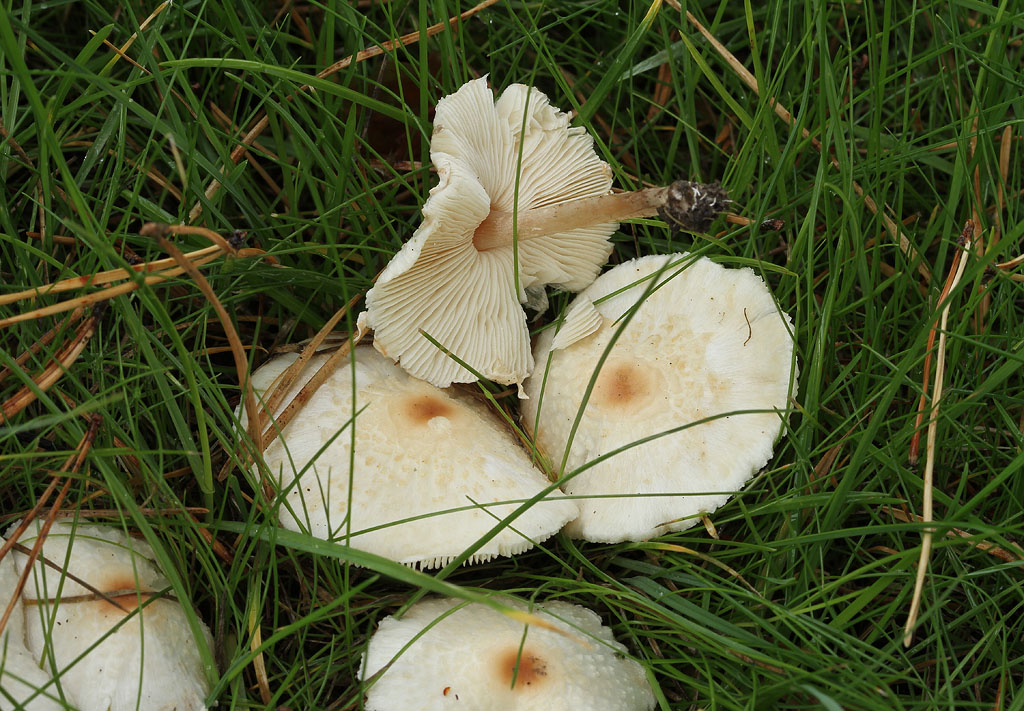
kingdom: Fungi
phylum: Basidiomycota
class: Agaricomycetes
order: Agaricales
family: Agaricaceae
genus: Lepiota
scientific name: Lepiota cristata
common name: stinkende parasolhat
